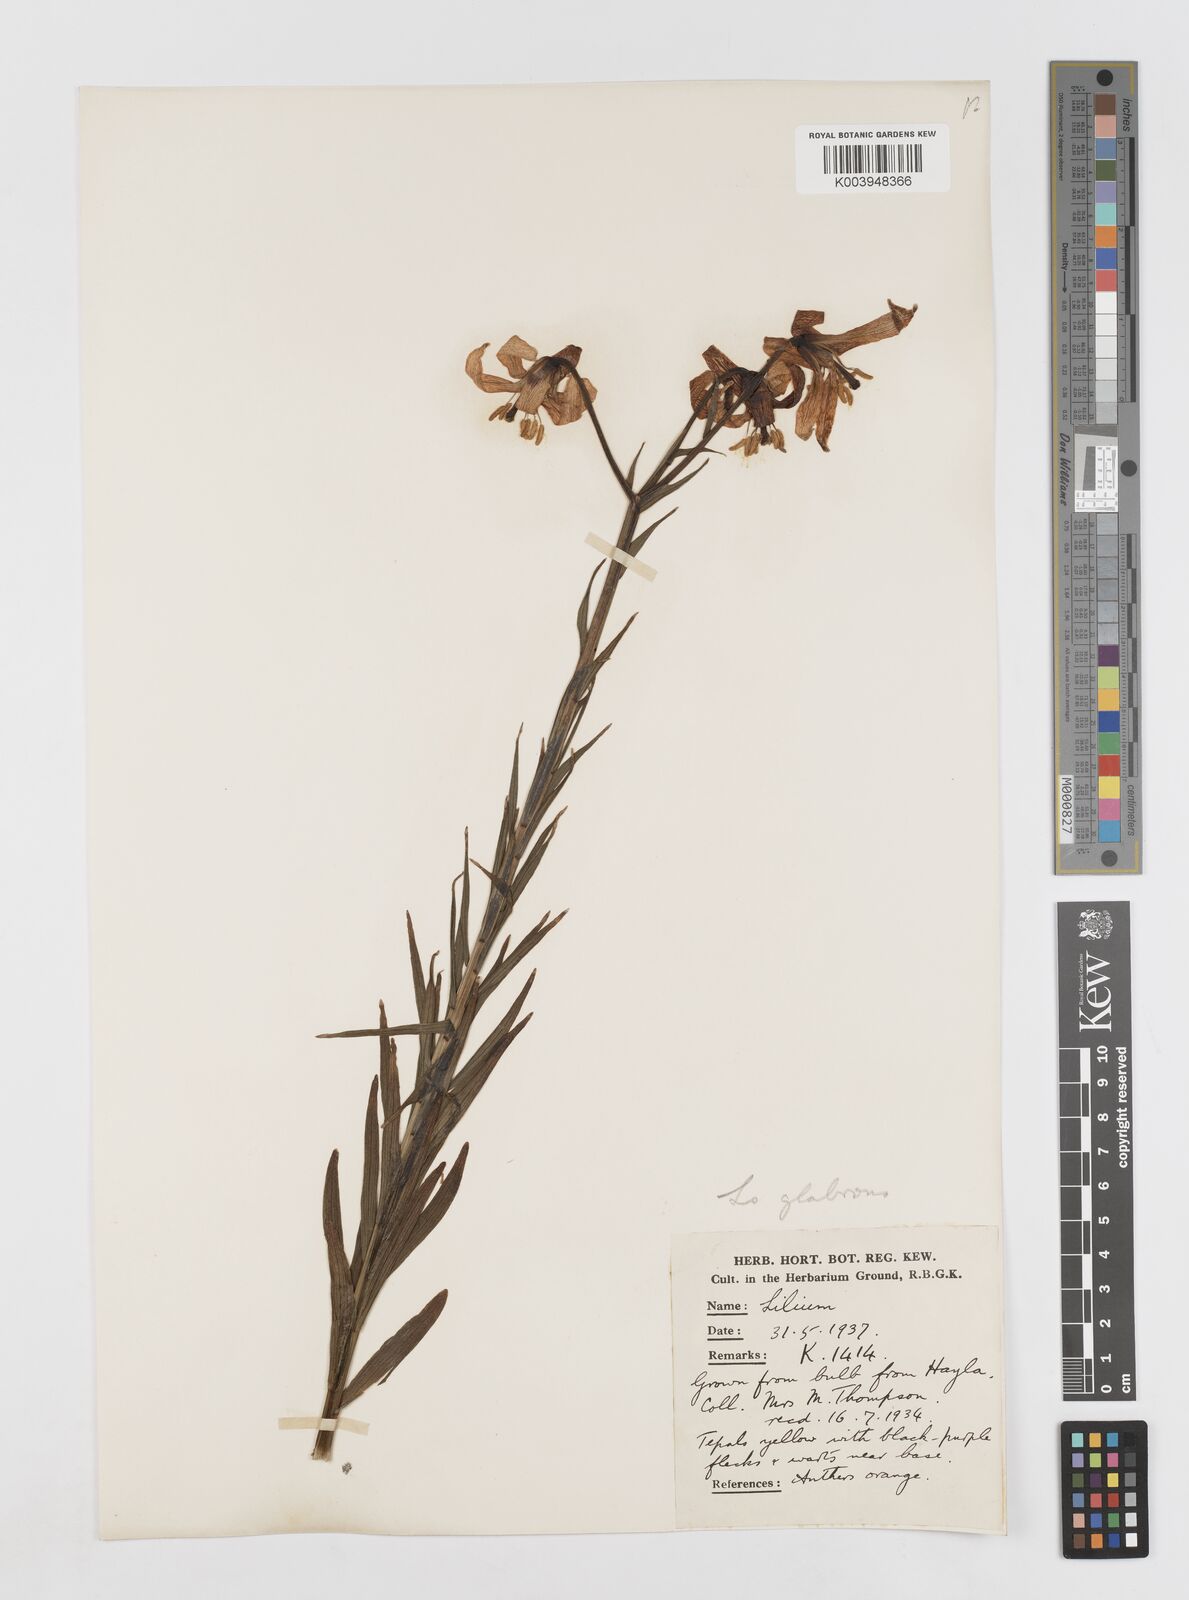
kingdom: Plantae
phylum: Tracheophyta
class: Liliopsida
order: Liliales
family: Liliaceae
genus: Lilium
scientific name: Lilium carniolicum
